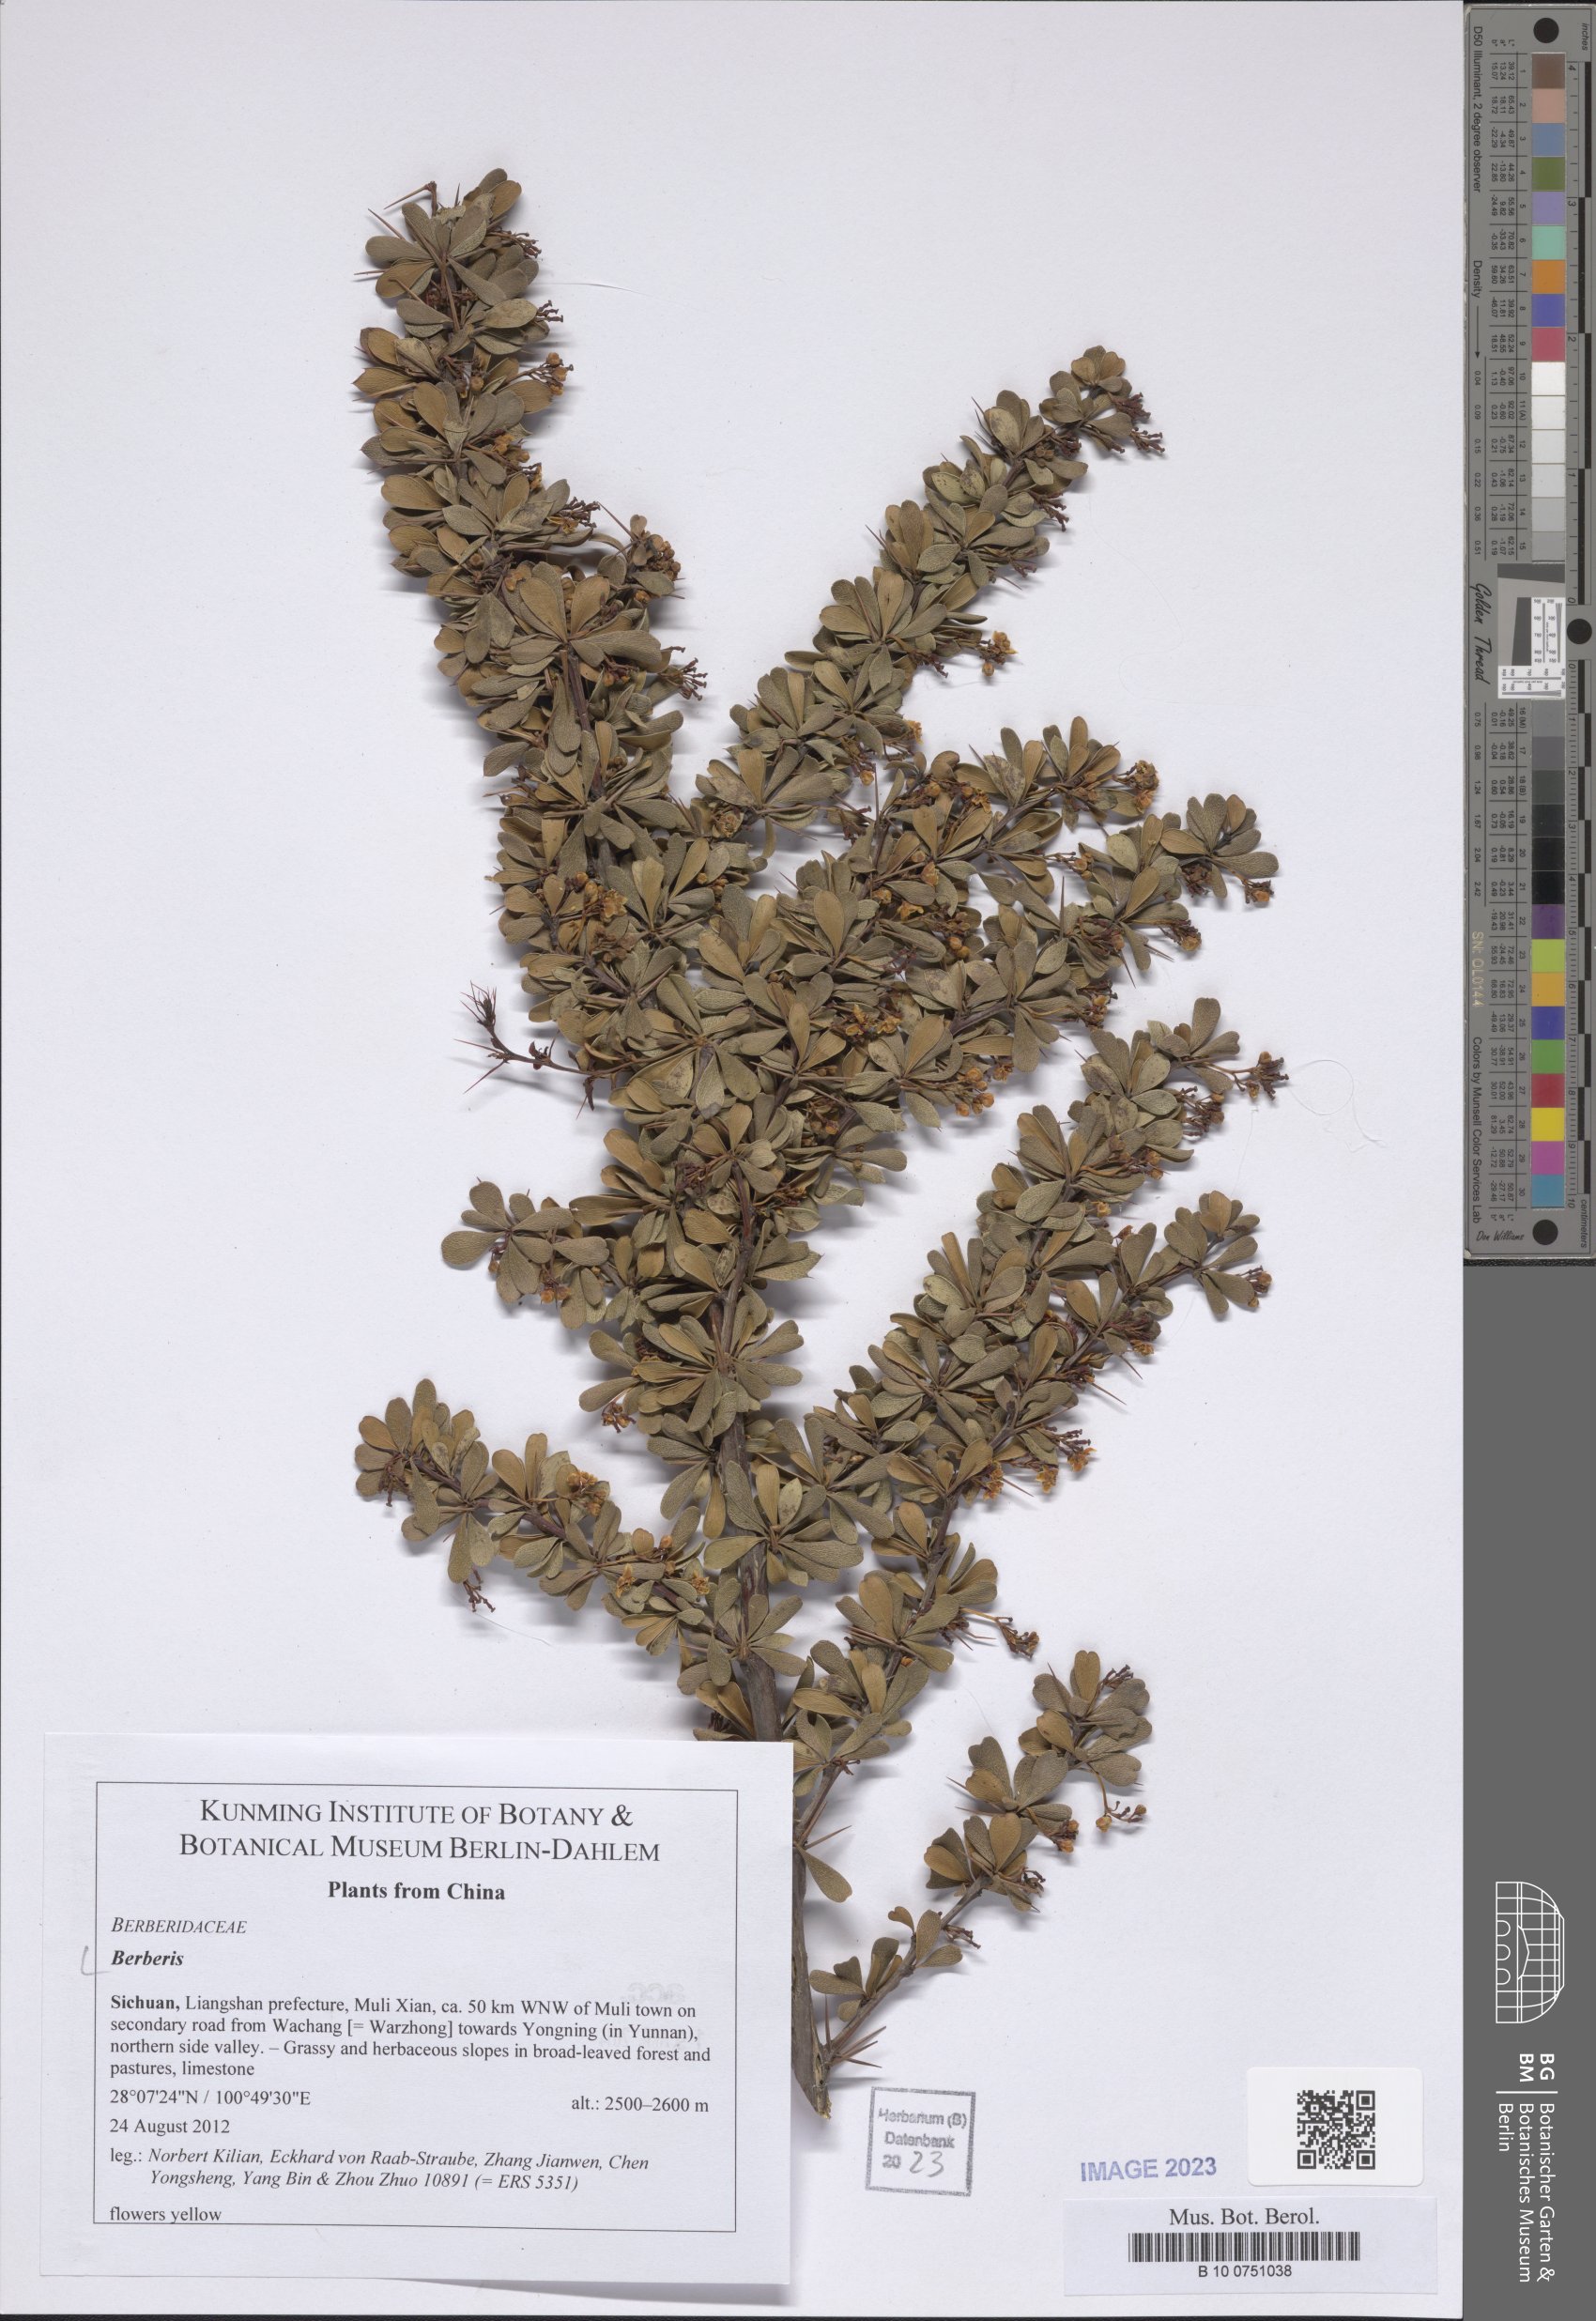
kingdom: Plantae
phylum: Tracheophyta
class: Magnoliopsida
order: Ranunculales
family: Berberidaceae
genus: Berberis
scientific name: Berberis
